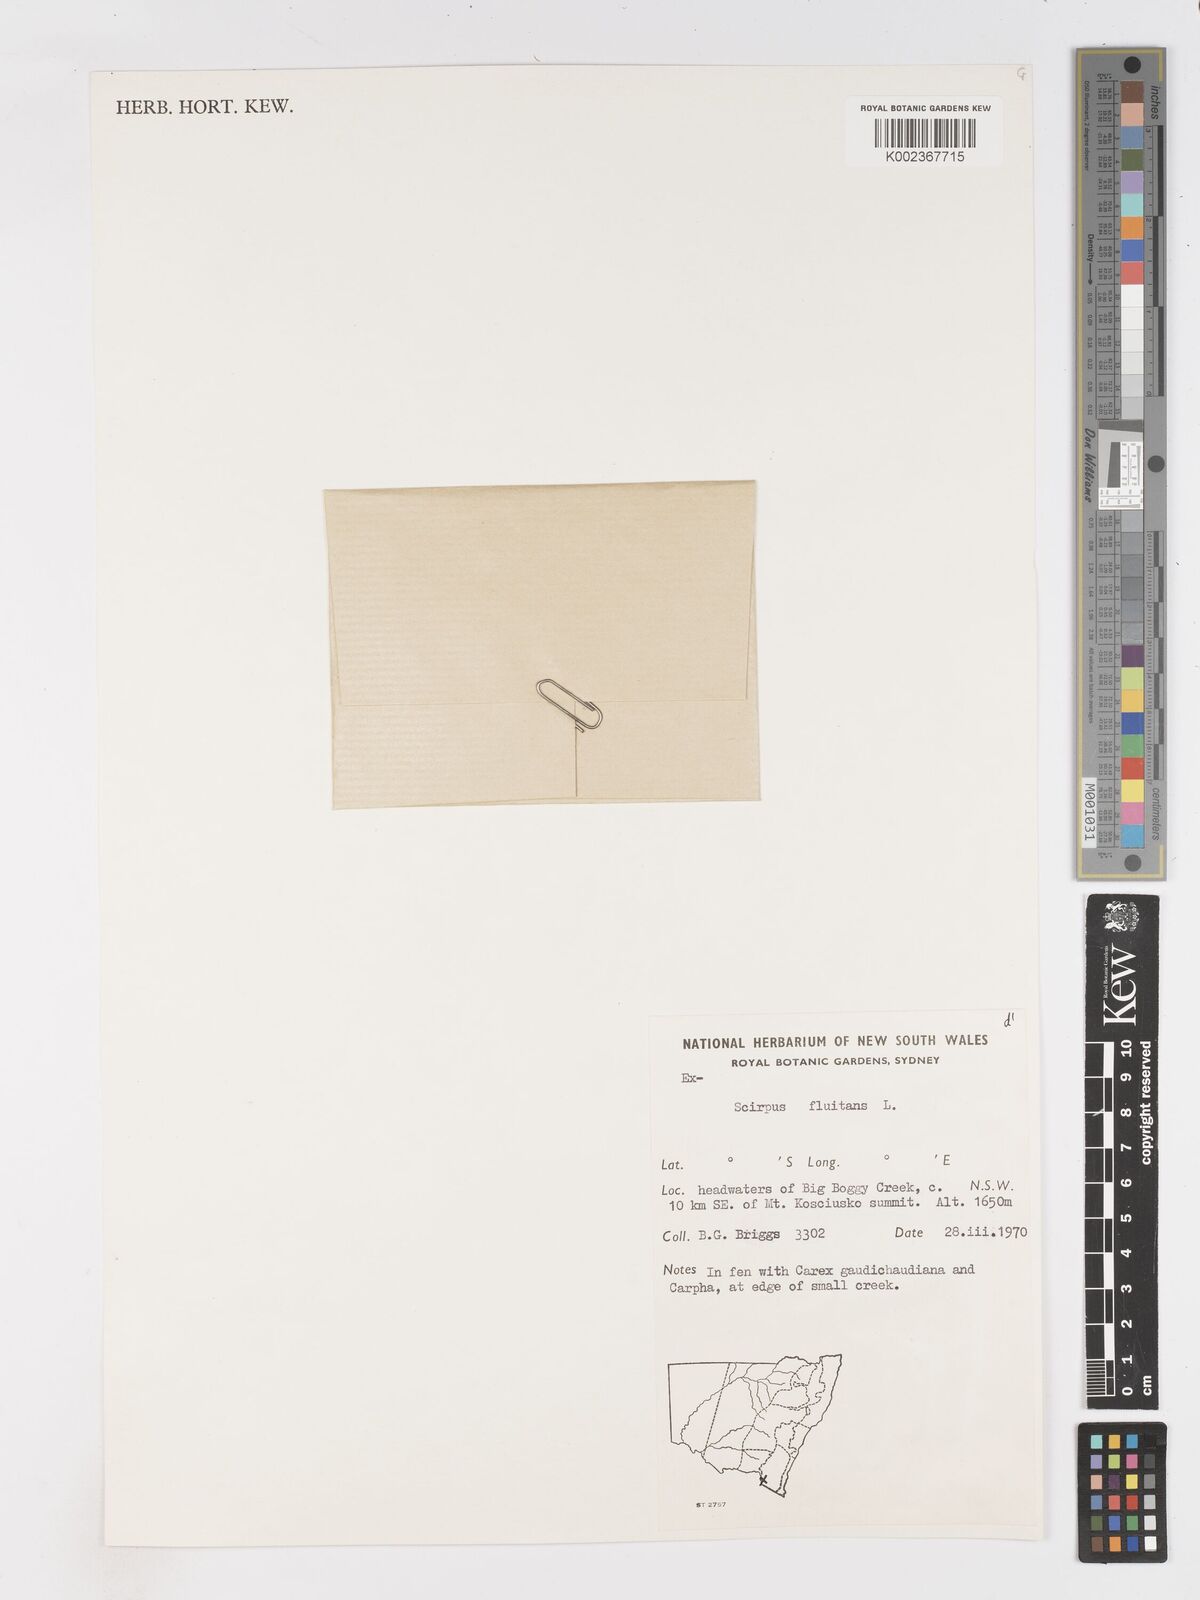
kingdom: Plantae
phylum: Tracheophyta
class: Liliopsida
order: Poales
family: Cyperaceae
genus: Isolepis
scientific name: Isolepis crassiuscula
